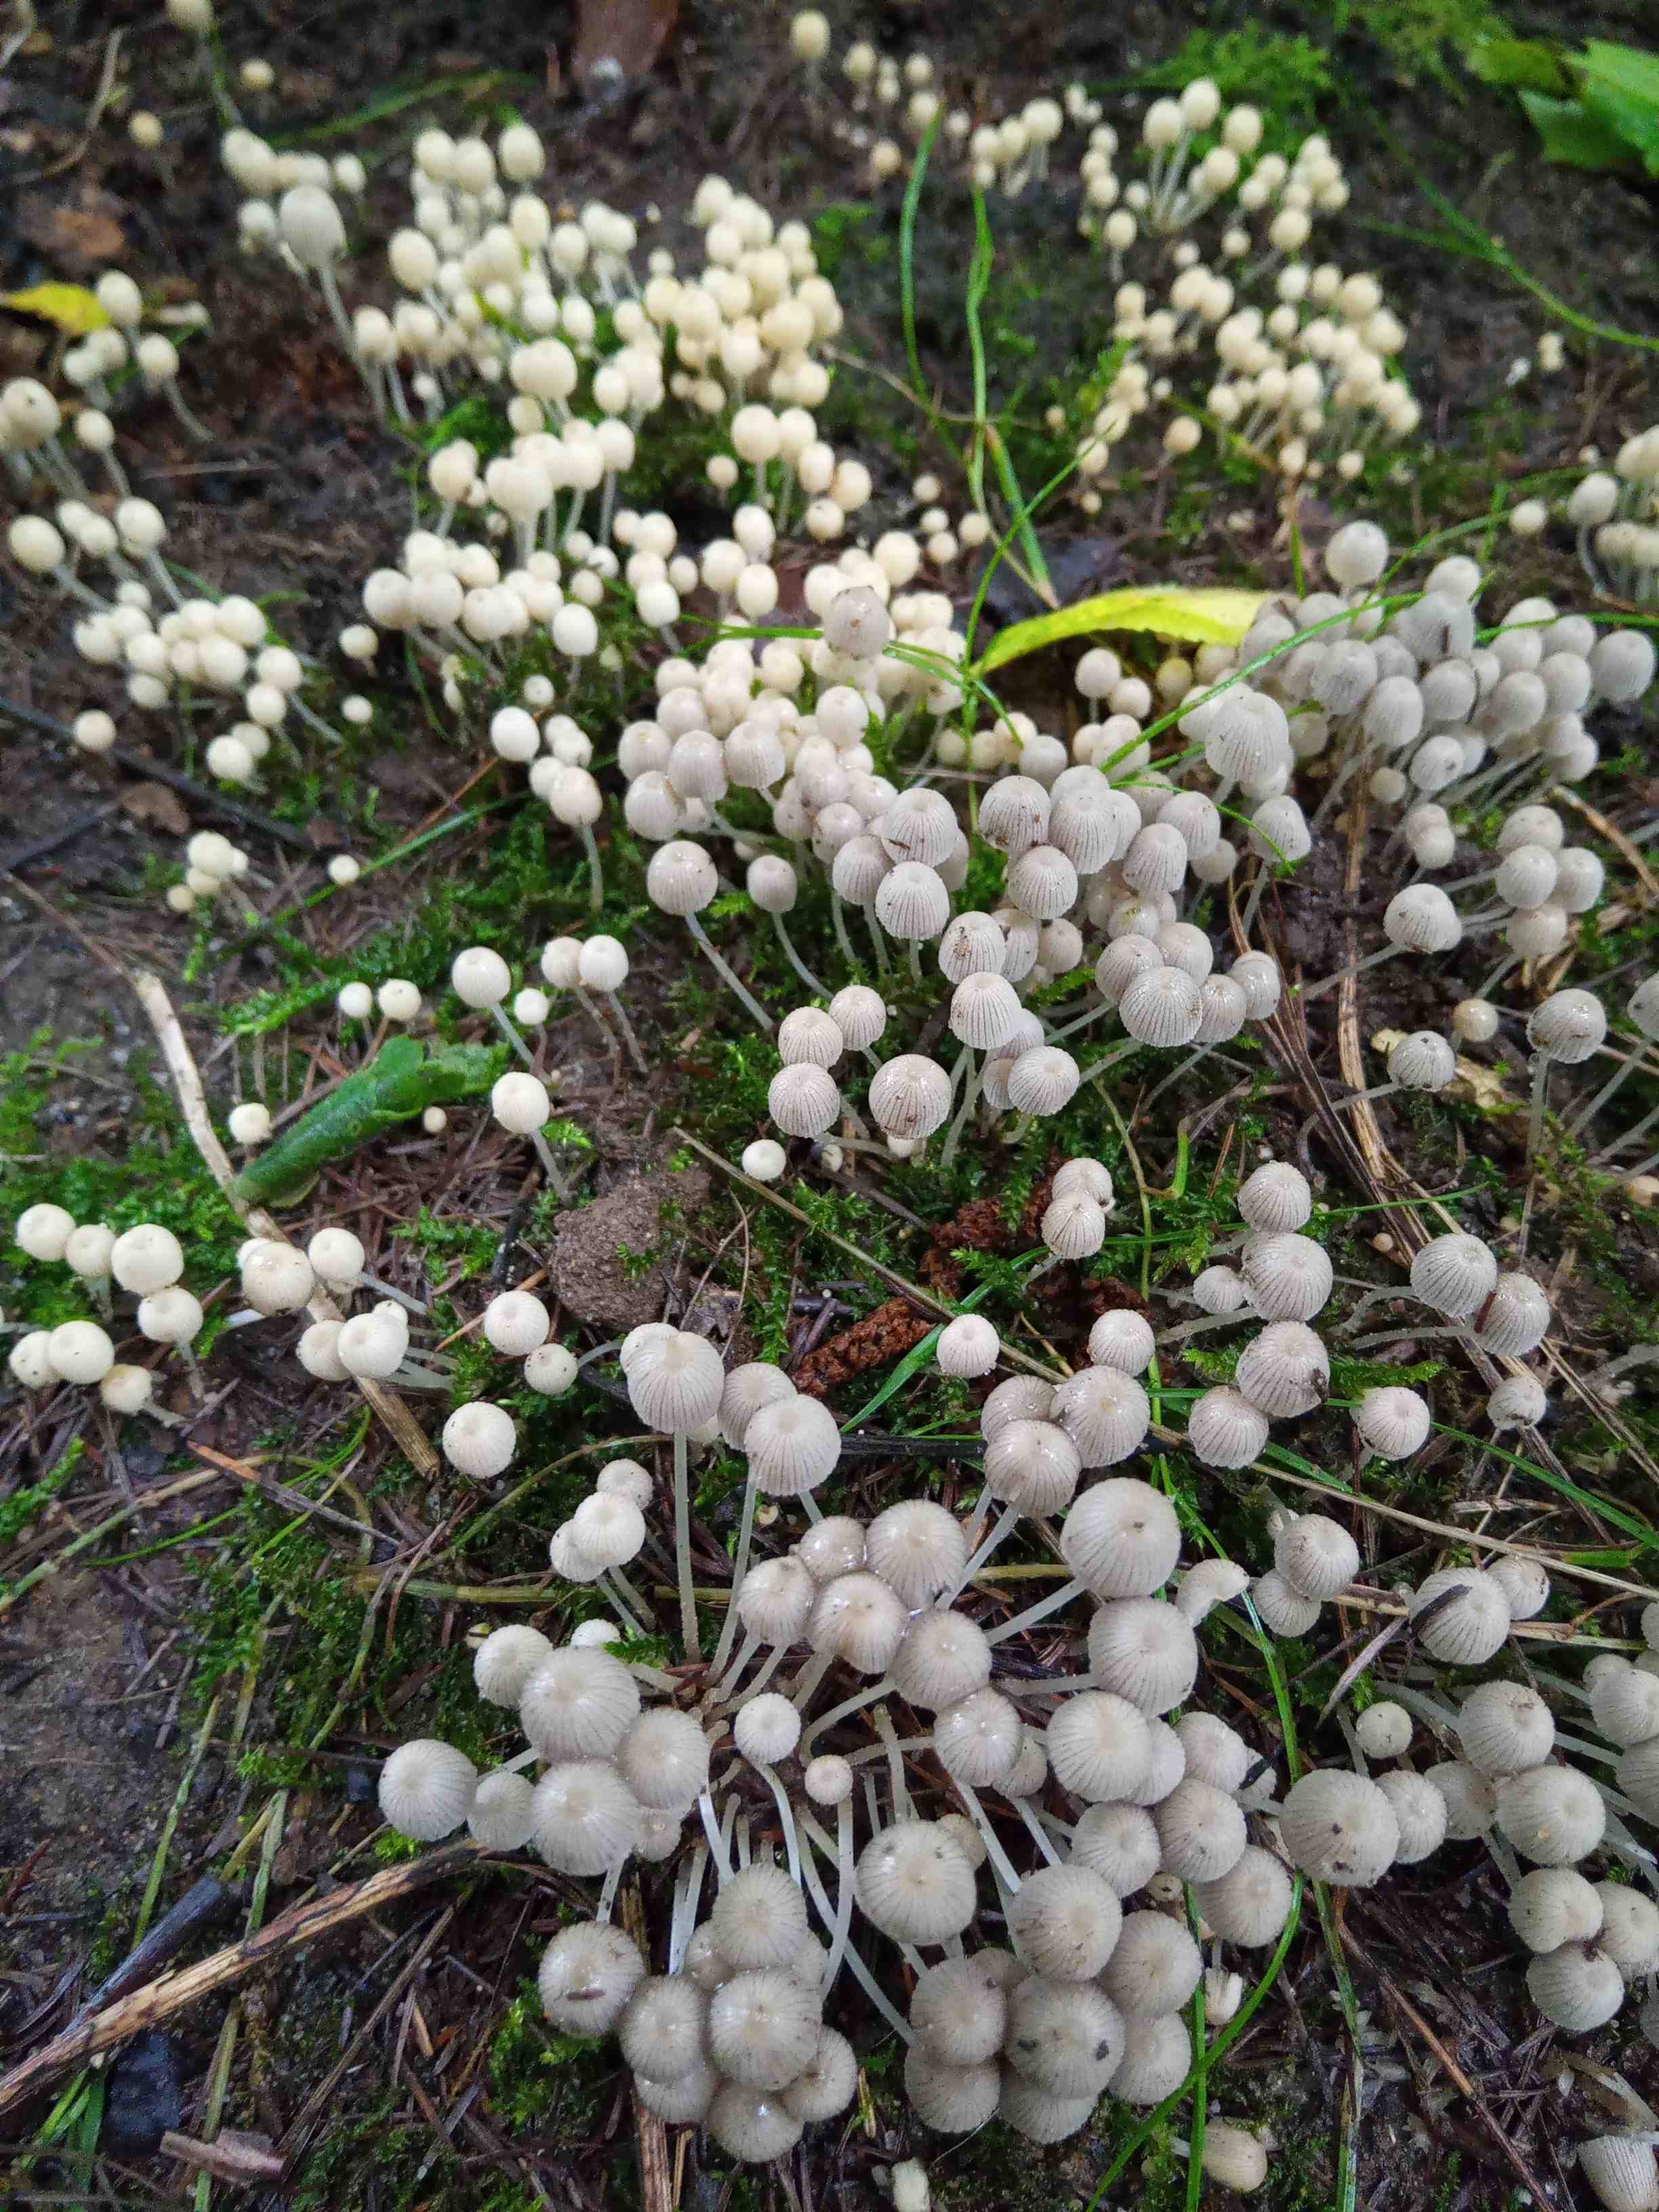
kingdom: Fungi
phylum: Basidiomycota
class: Agaricomycetes
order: Agaricales
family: Psathyrellaceae
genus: Coprinellus
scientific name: Coprinellus disseminatus
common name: bredsået blækhat
